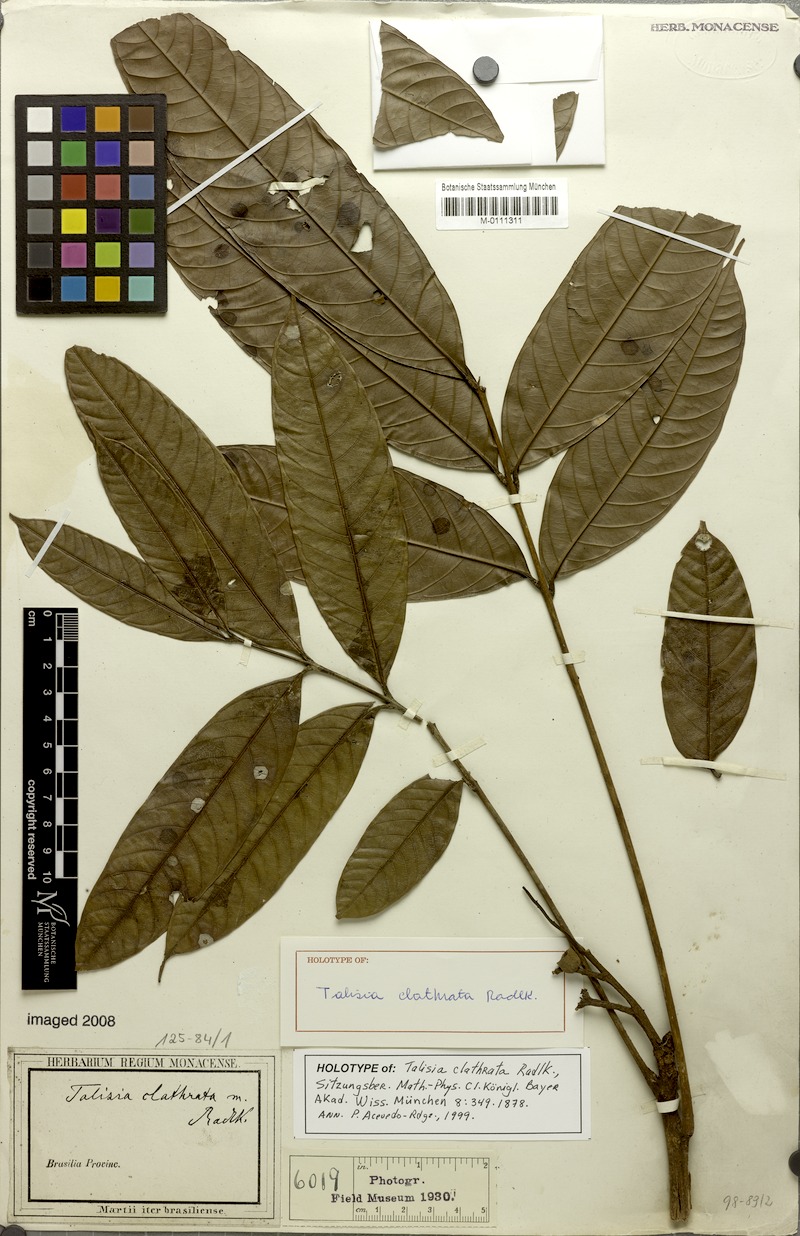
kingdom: Plantae
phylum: Tracheophyta
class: Magnoliopsida
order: Sapindales
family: Sapindaceae
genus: Talisia
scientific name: Talisia clathrata
